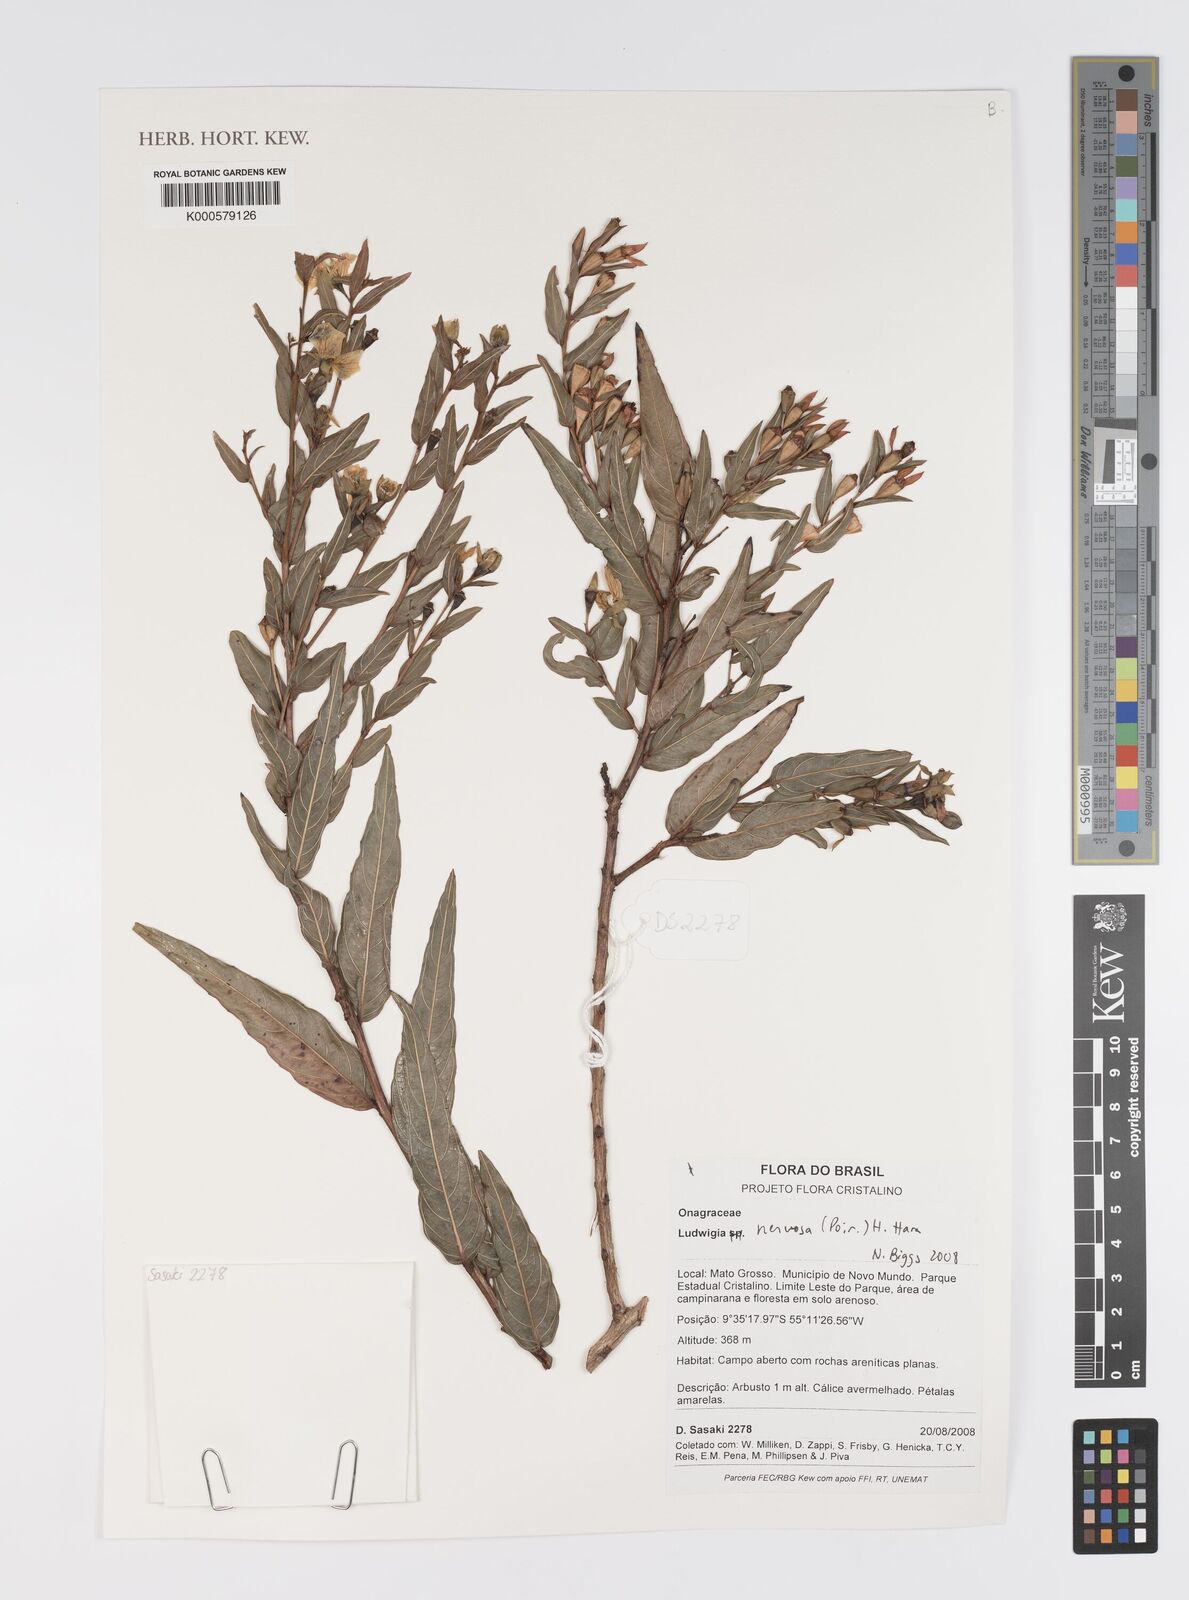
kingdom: Plantae
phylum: Tracheophyta
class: Magnoliopsida
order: Myrtales
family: Onagraceae
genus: Ludwigia
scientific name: Ludwigia nervosa
